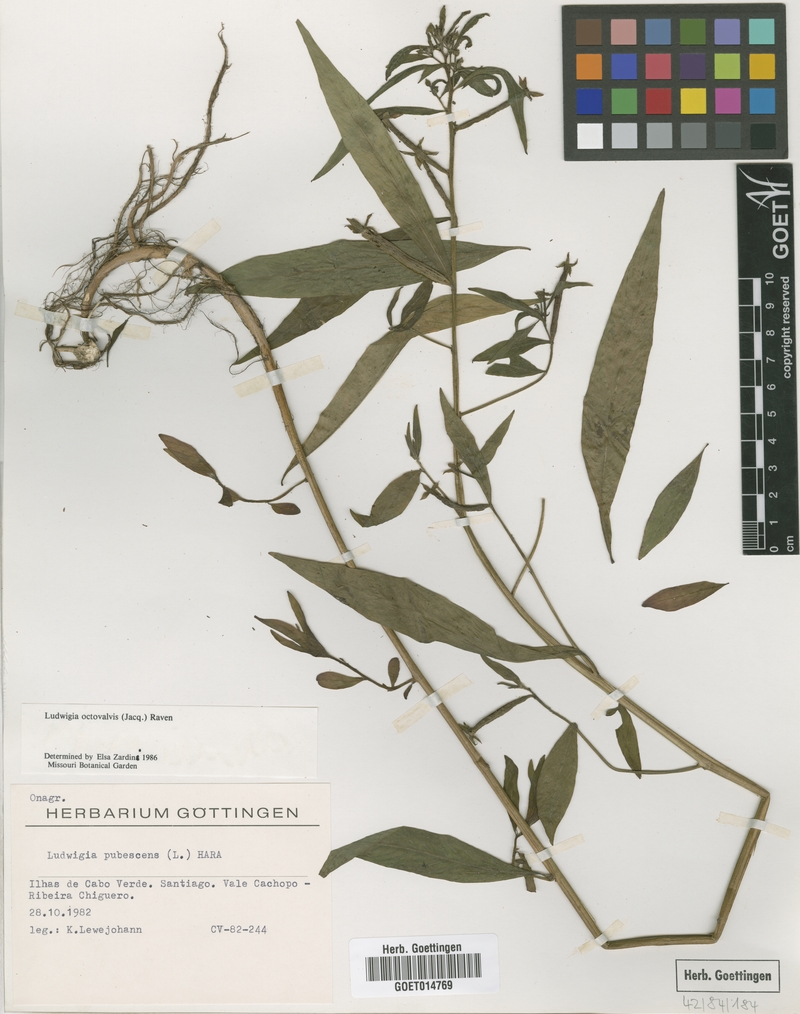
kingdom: Plantae
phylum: Tracheophyta
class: Magnoliopsida
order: Myrtales
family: Onagraceae
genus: Ludwigia
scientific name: Ludwigia octovalvis
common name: Water-primrose
